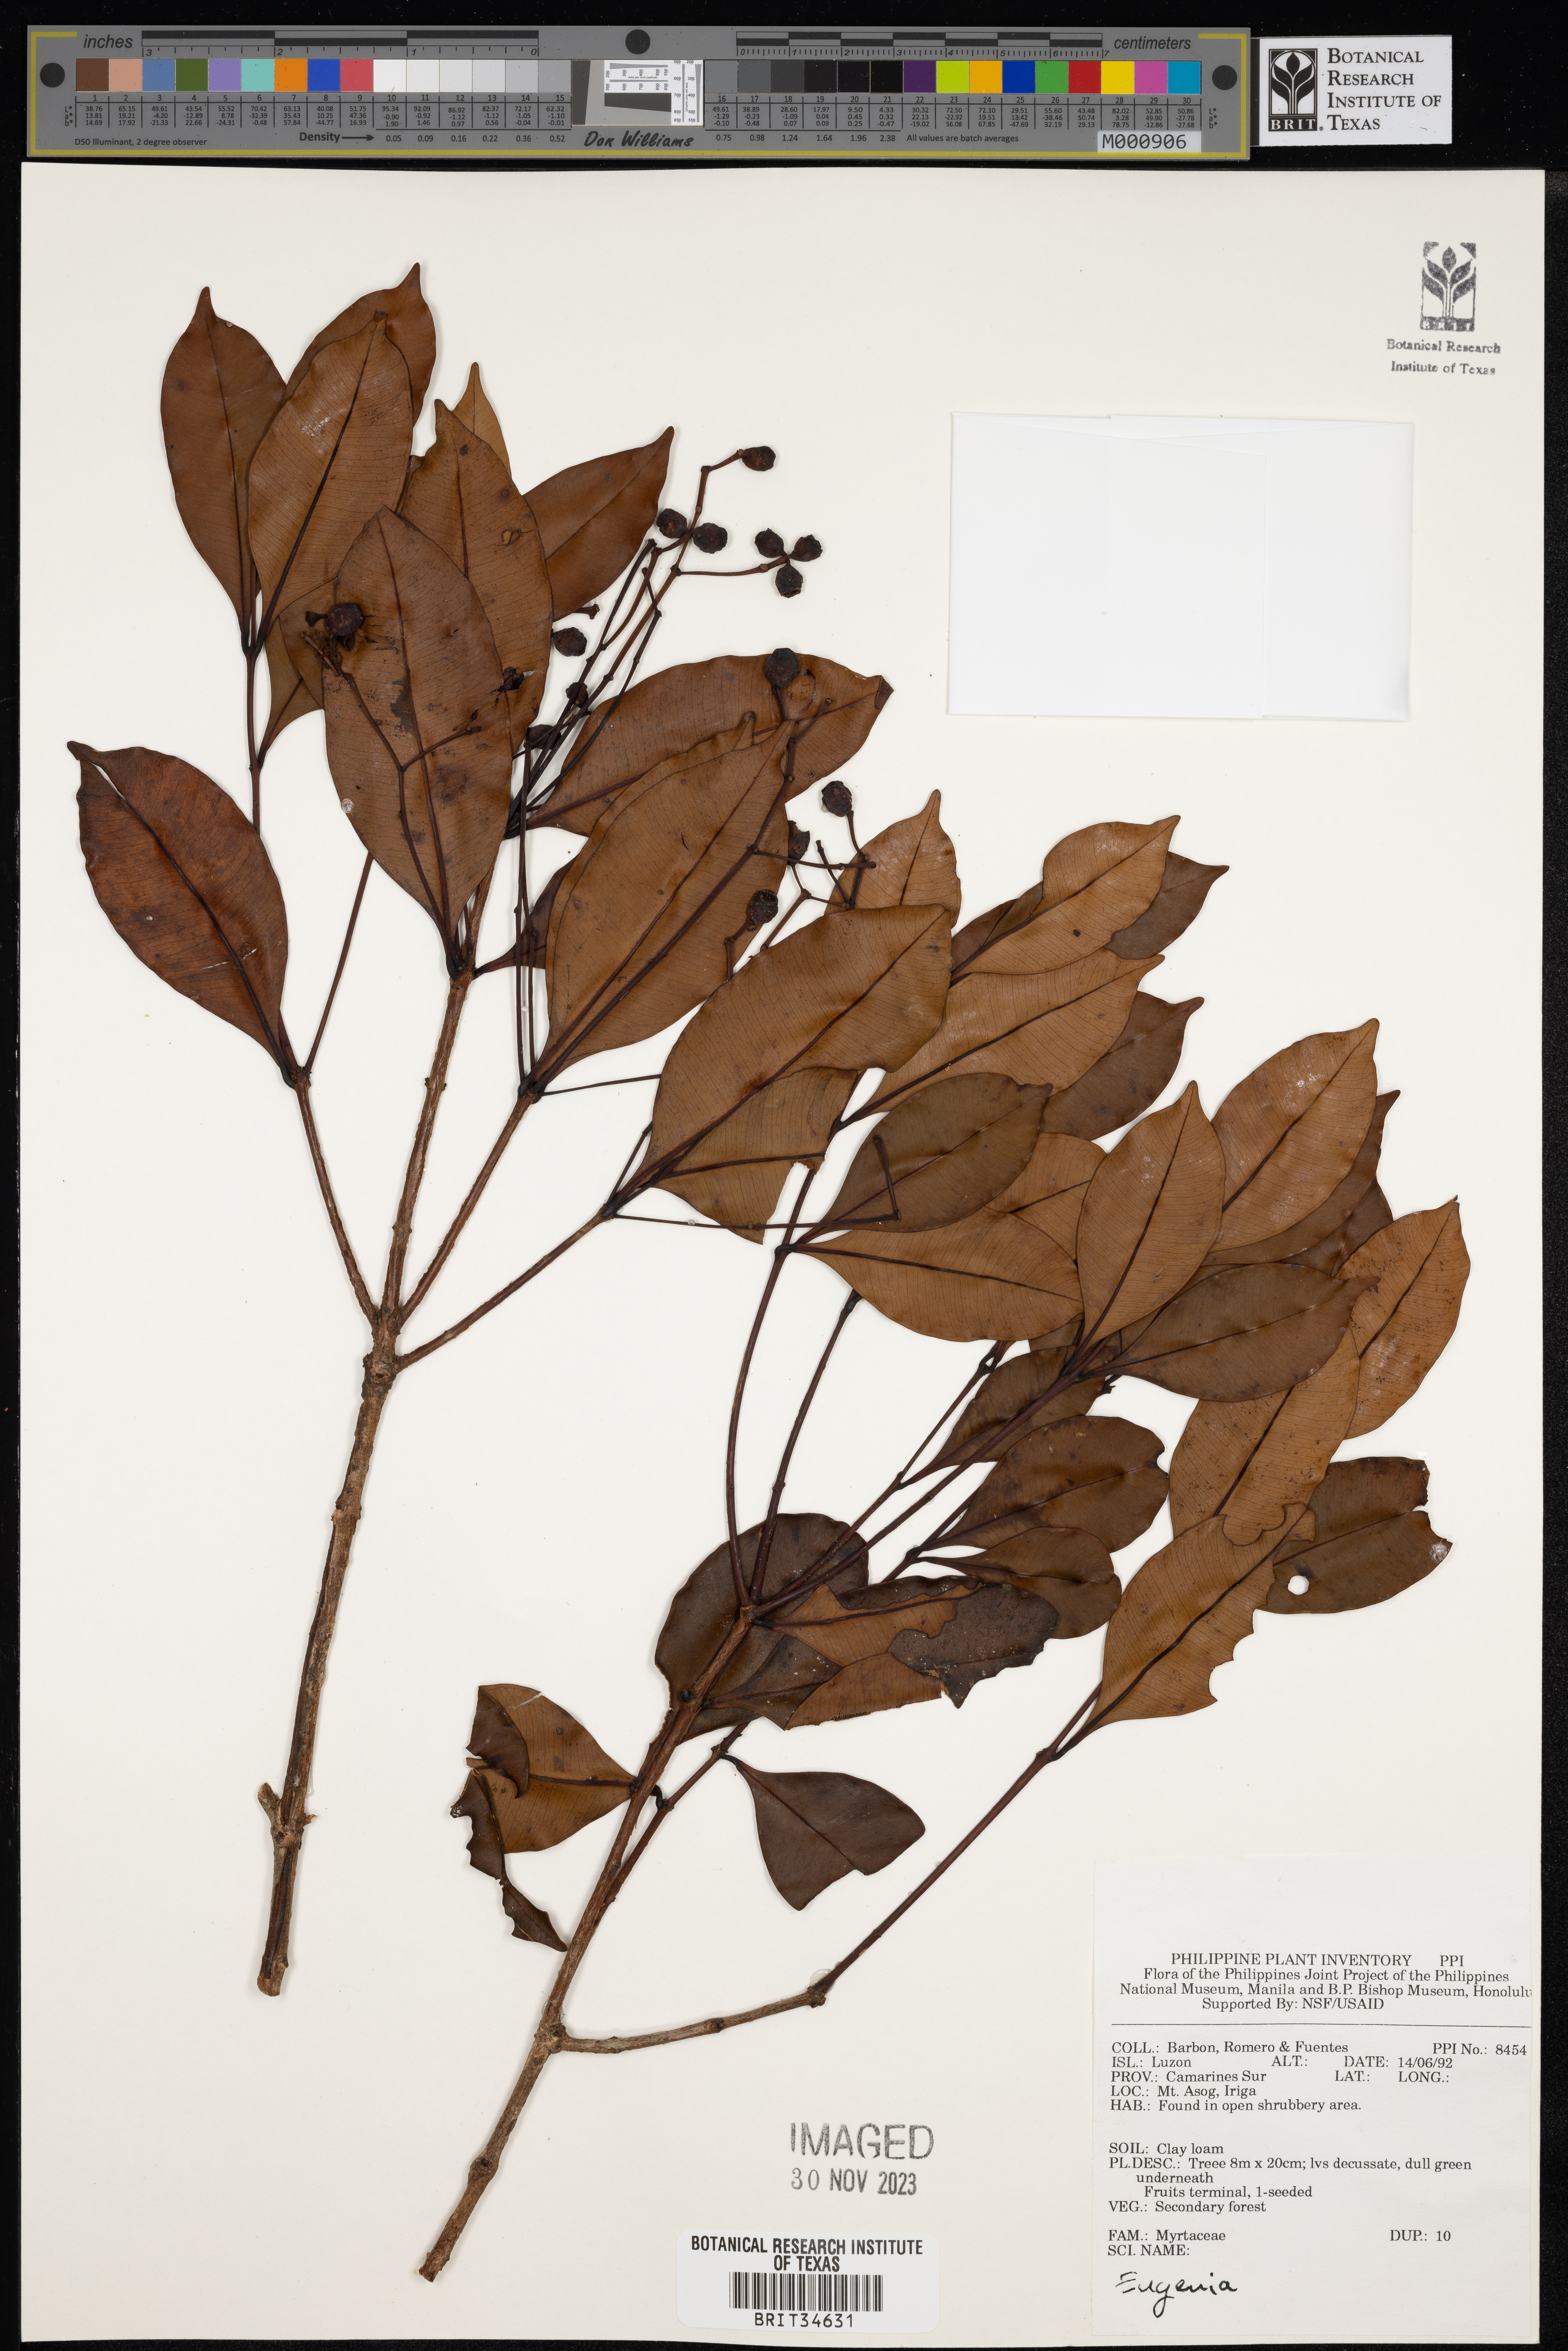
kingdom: Plantae
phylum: Tracheophyta
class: Magnoliopsida
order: Myrtales
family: Myrtaceae
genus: Eugenia
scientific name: Eugenia
